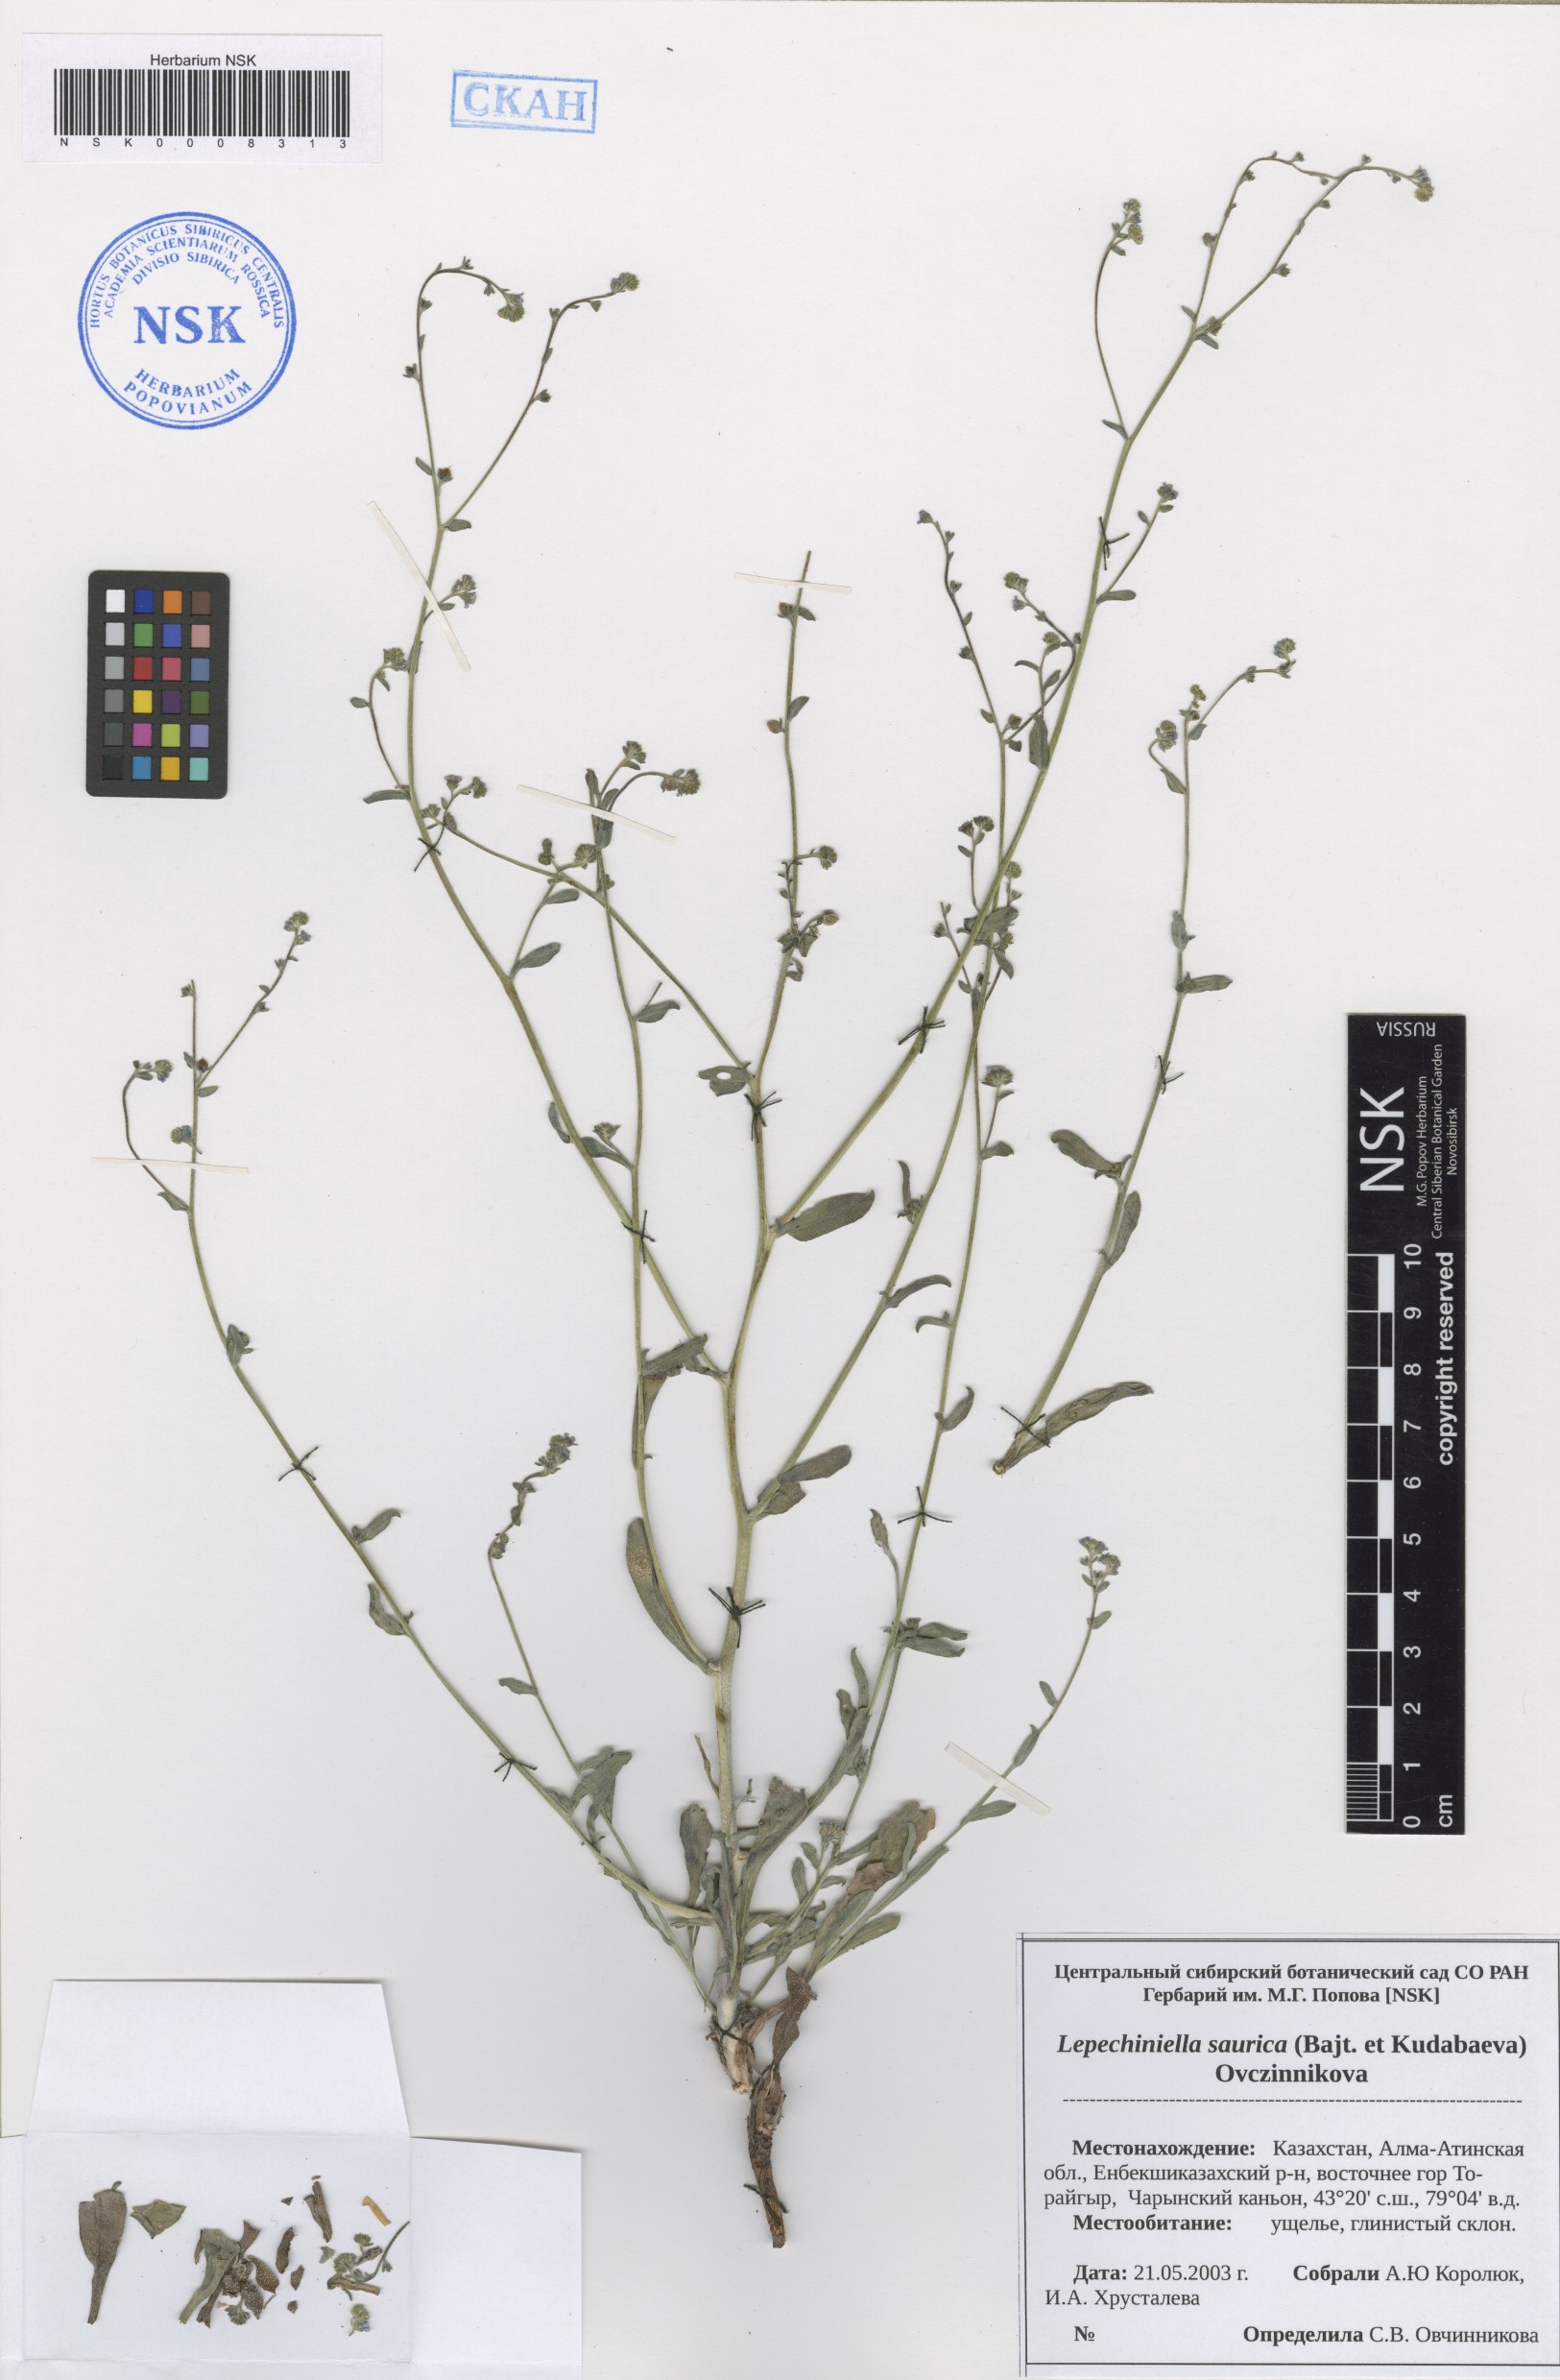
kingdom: Plantae
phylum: Tracheophyta
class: Magnoliopsida
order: Boraginales
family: Boraginaceae
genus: Lepechiniella
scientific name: Lepechiniella saurica
